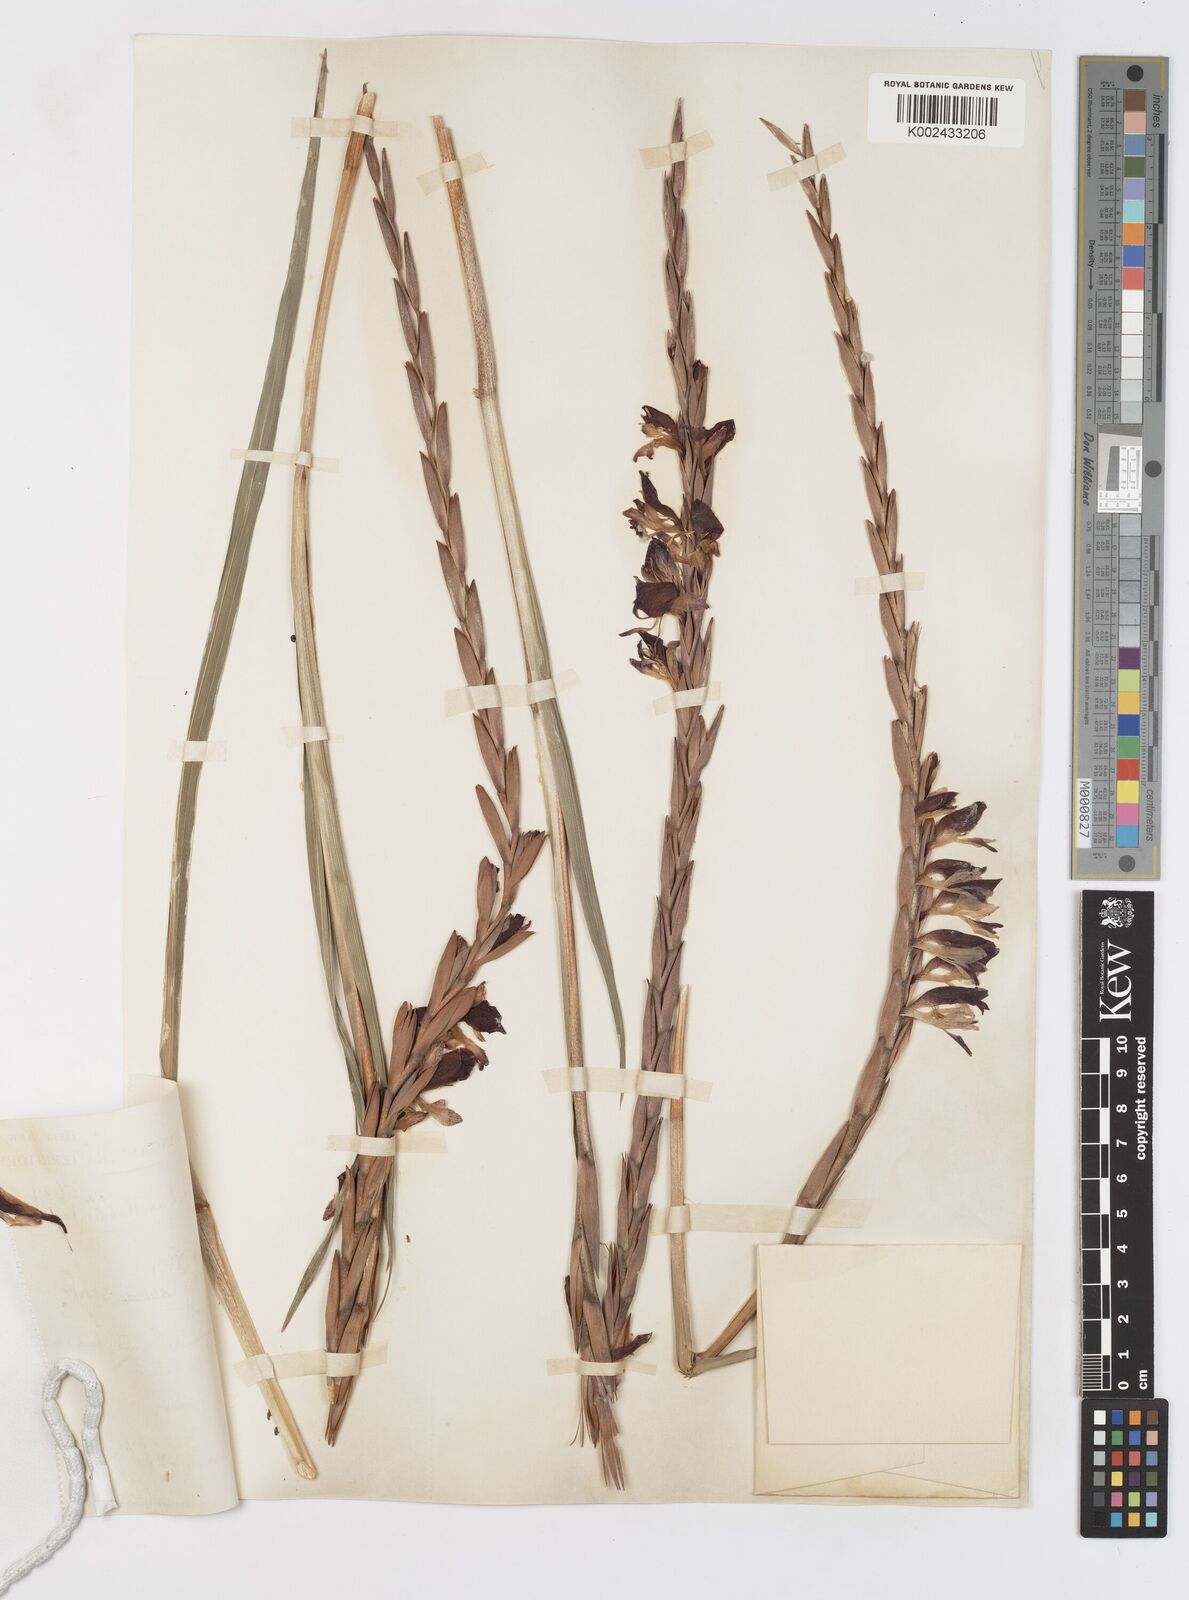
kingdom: Plantae
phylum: Tracheophyta
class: Liliopsida
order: Asparagales
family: Iridaceae
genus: Gladiolus
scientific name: Gladiolus gregarius
